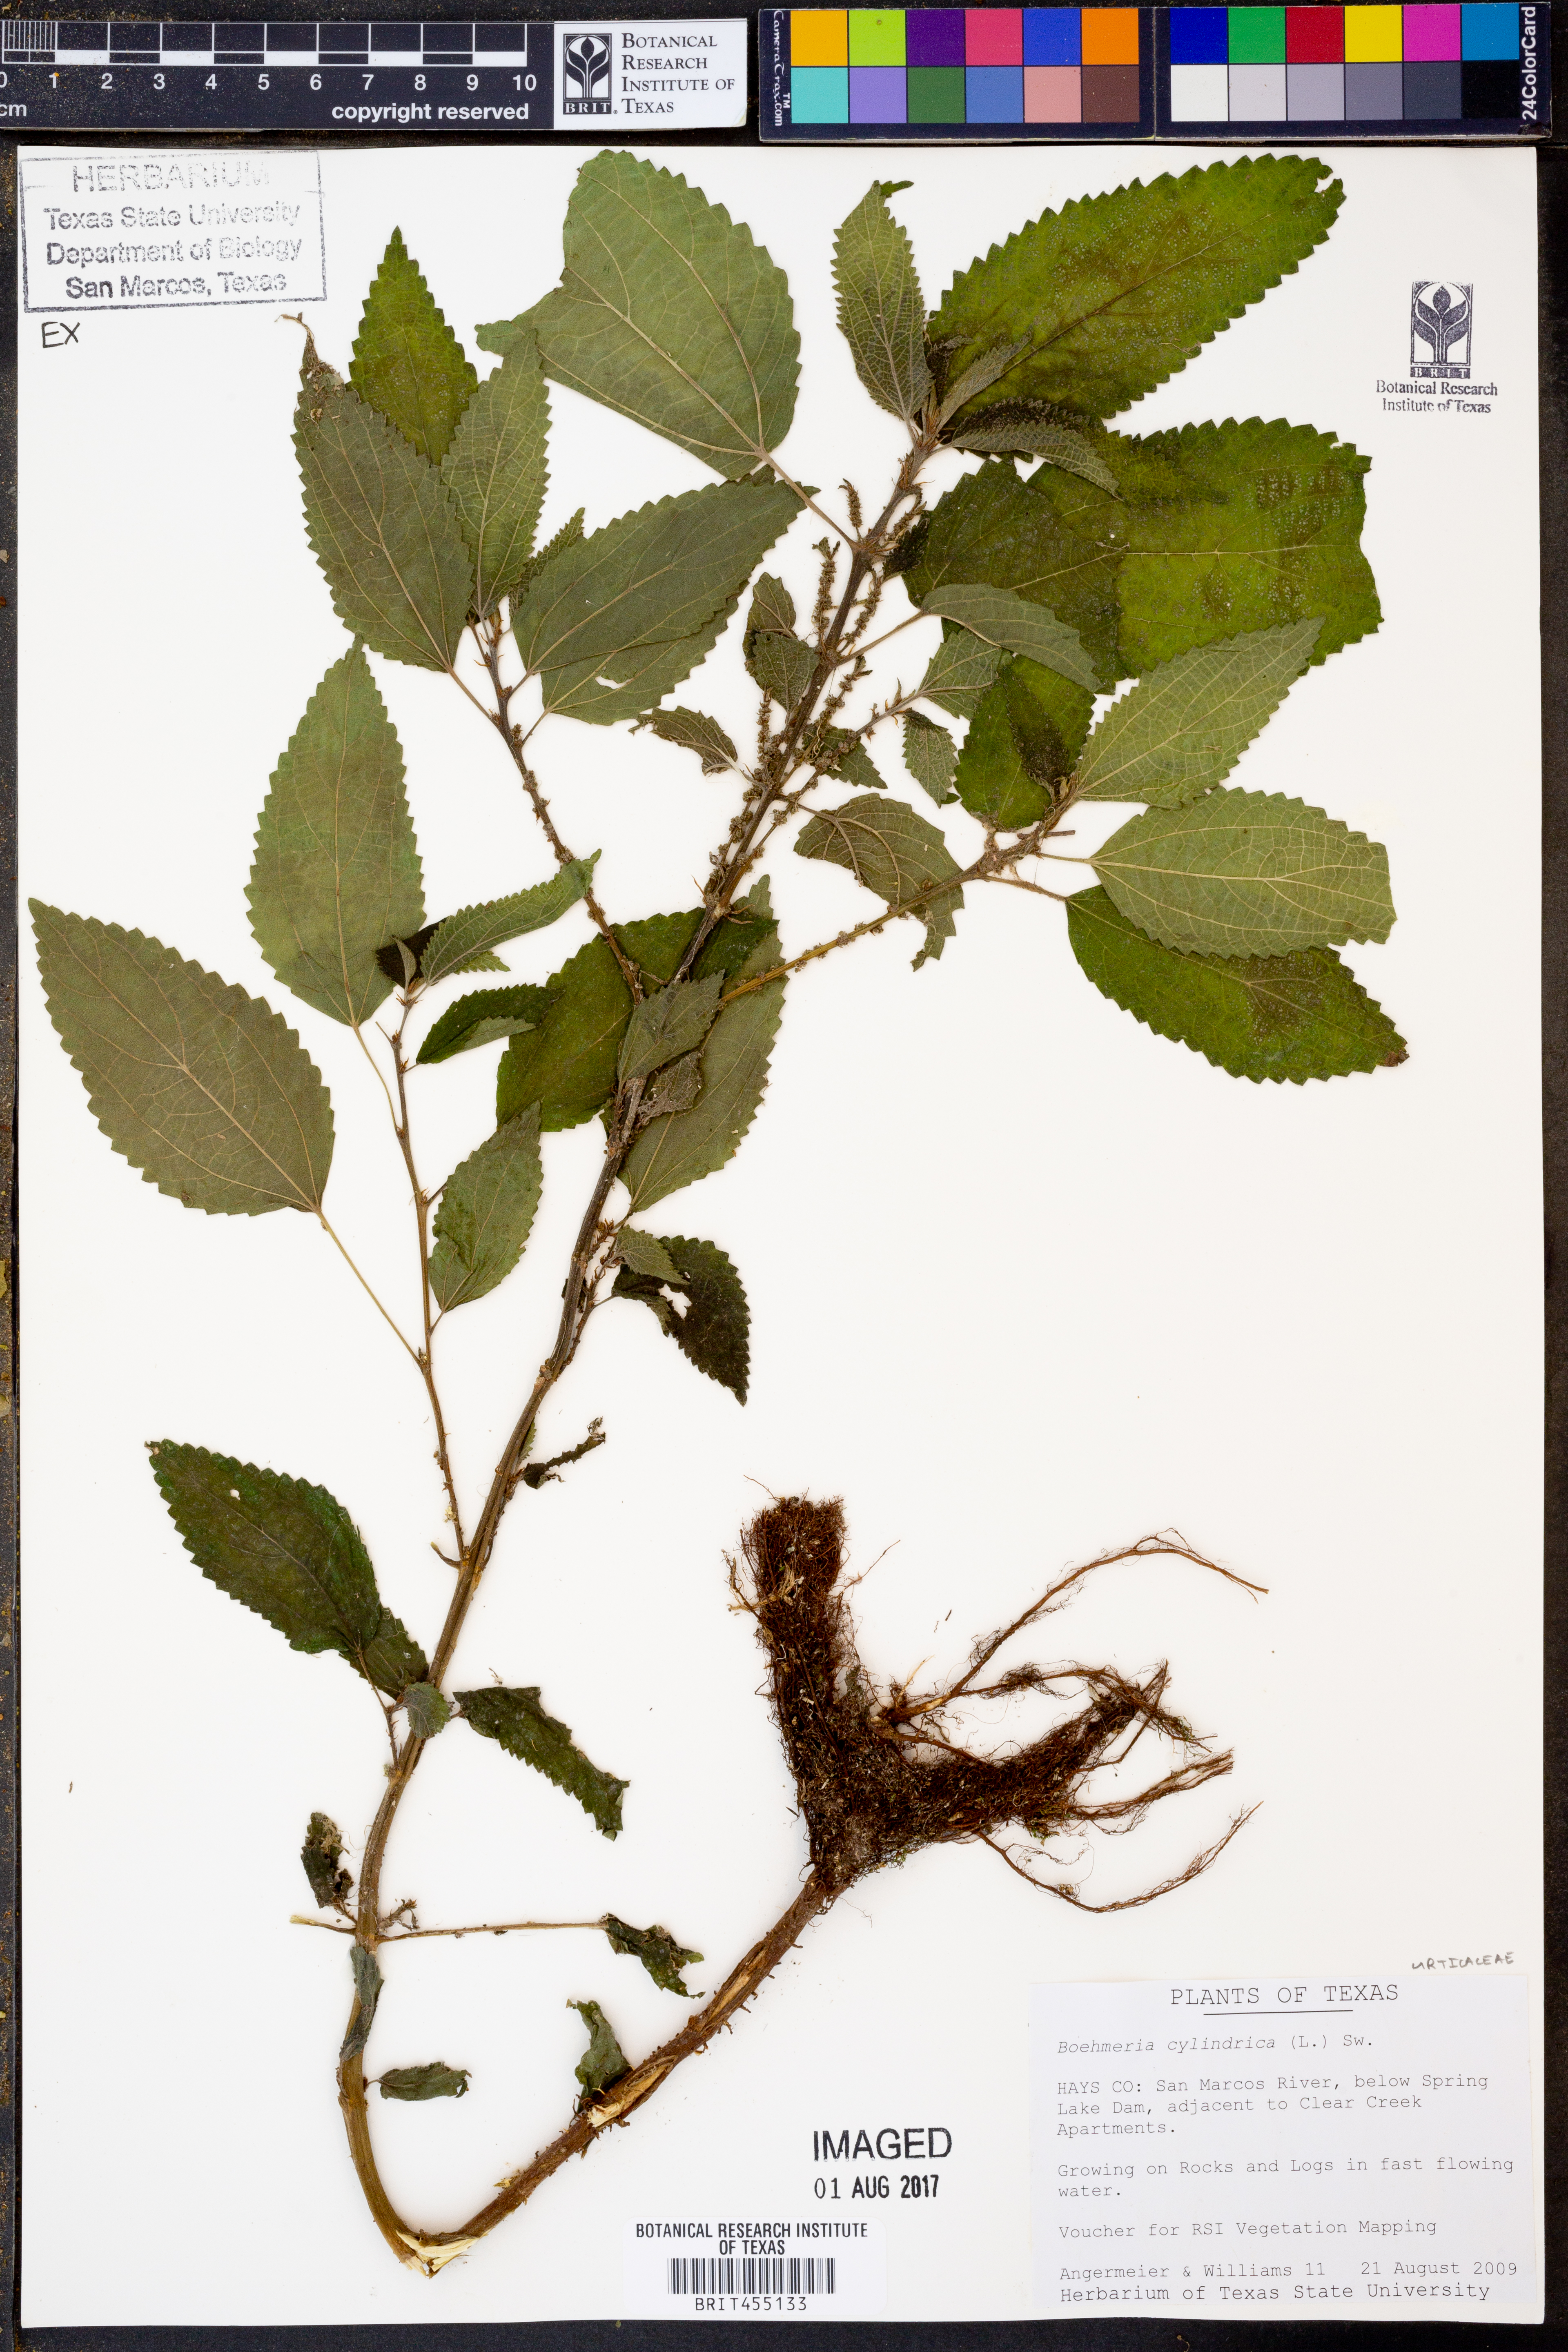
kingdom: Plantae
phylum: Tracheophyta
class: Magnoliopsida
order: Rosales
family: Urticaceae
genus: Boehmeria
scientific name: Boehmeria cylindrica
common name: Bog-hemp
